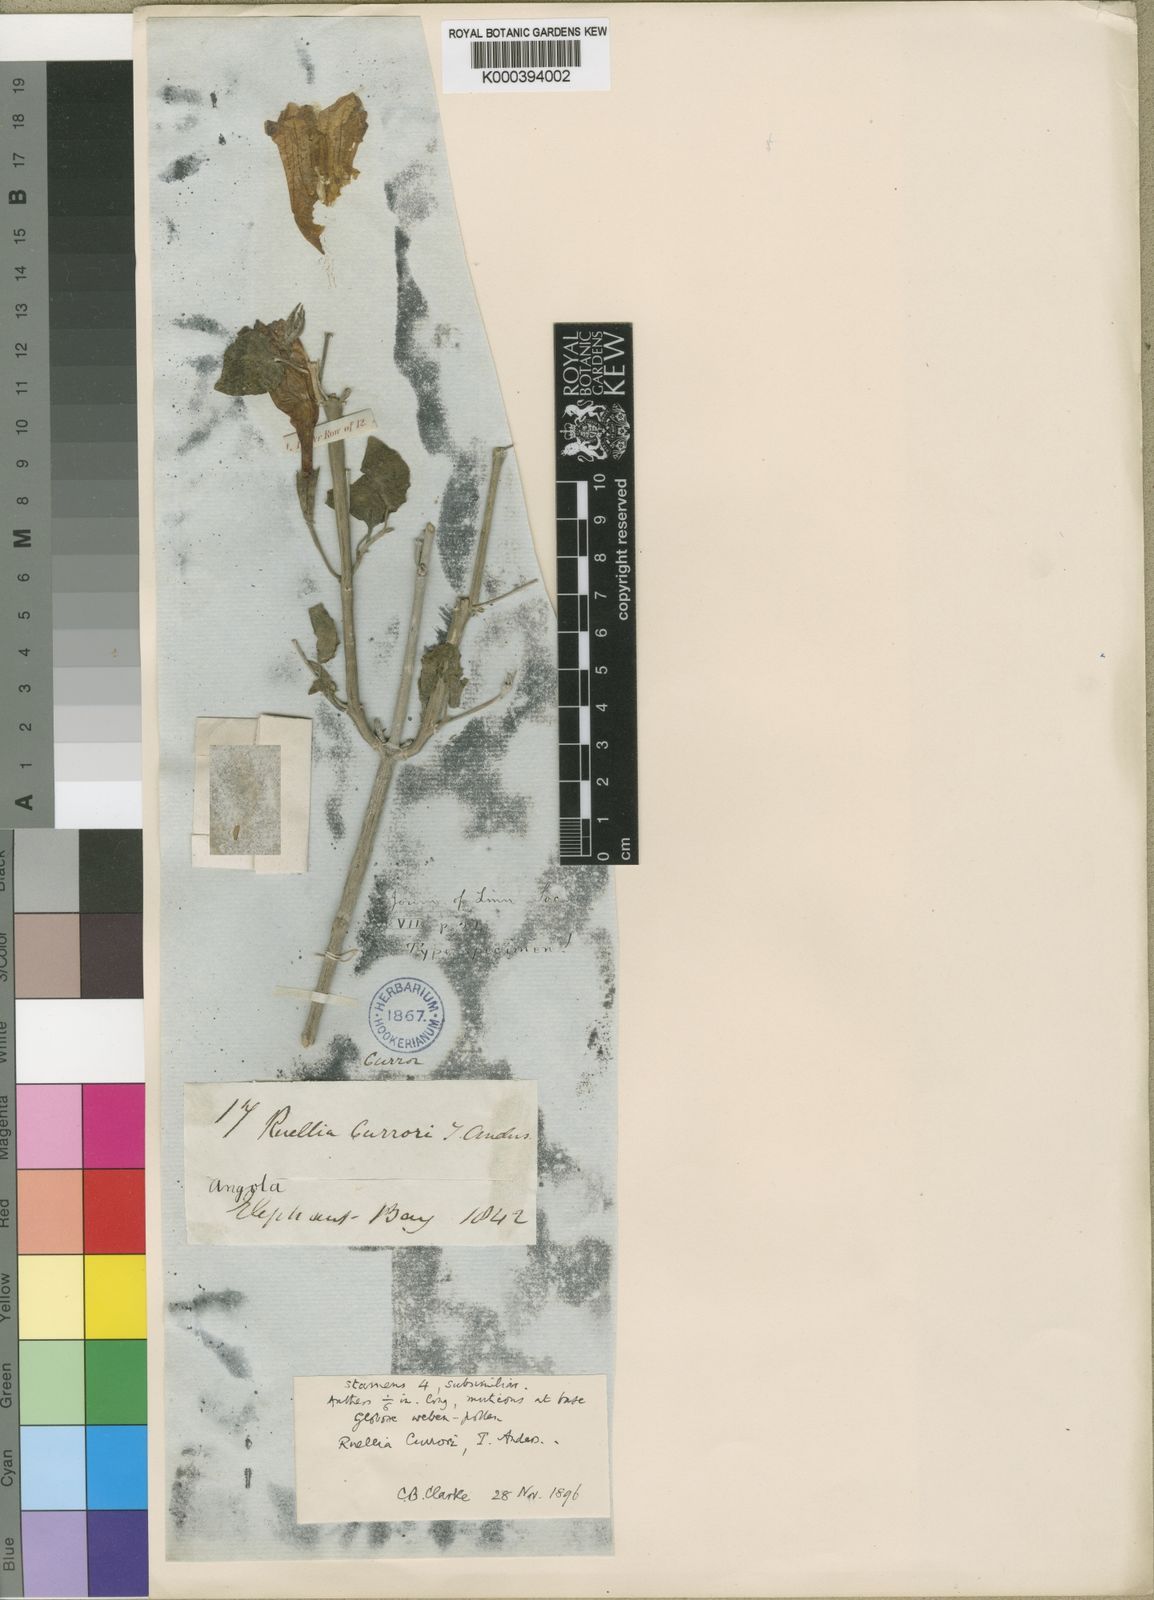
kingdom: Plantae
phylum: Tracheophyta
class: Magnoliopsida
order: Lamiales
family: Acanthaceae
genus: Ruellia
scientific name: Ruellia currorii
